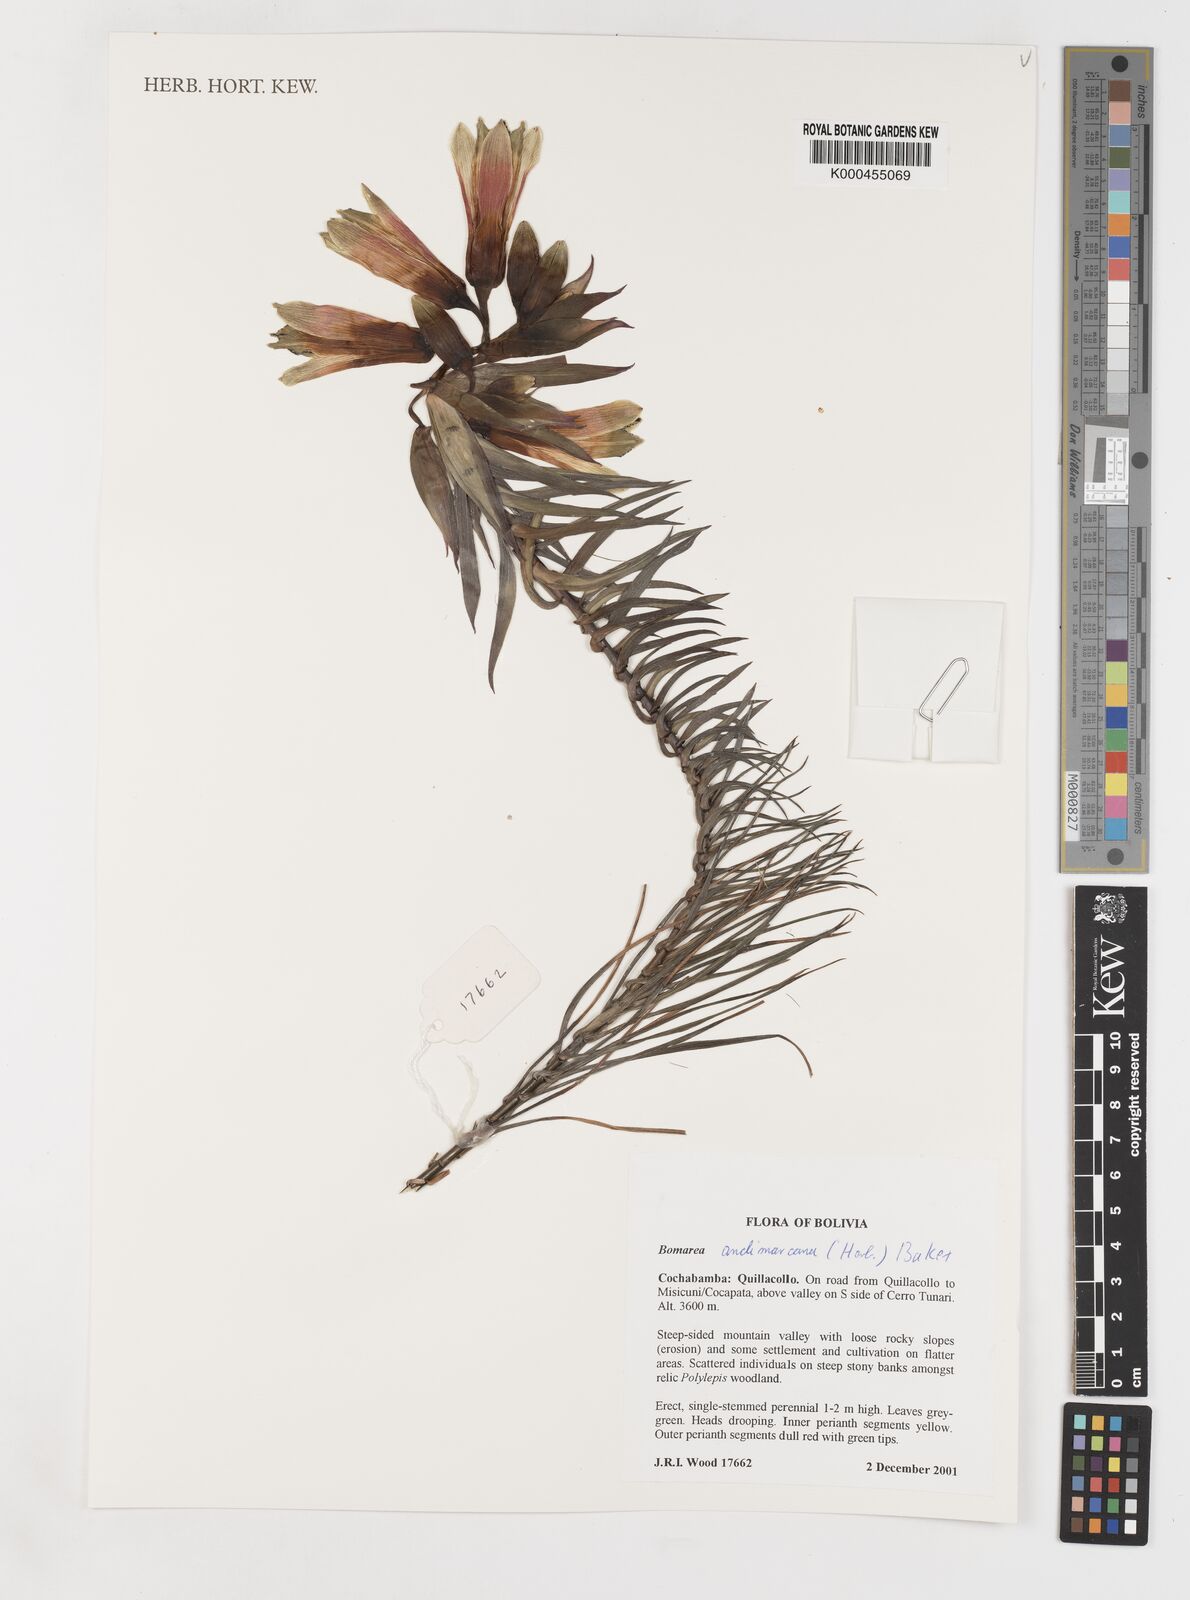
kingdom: Plantae
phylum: Tracheophyta
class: Liliopsida
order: Liliales
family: Alstroemeriaceae
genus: Alstroemeria
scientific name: Alstroemeria leporina
